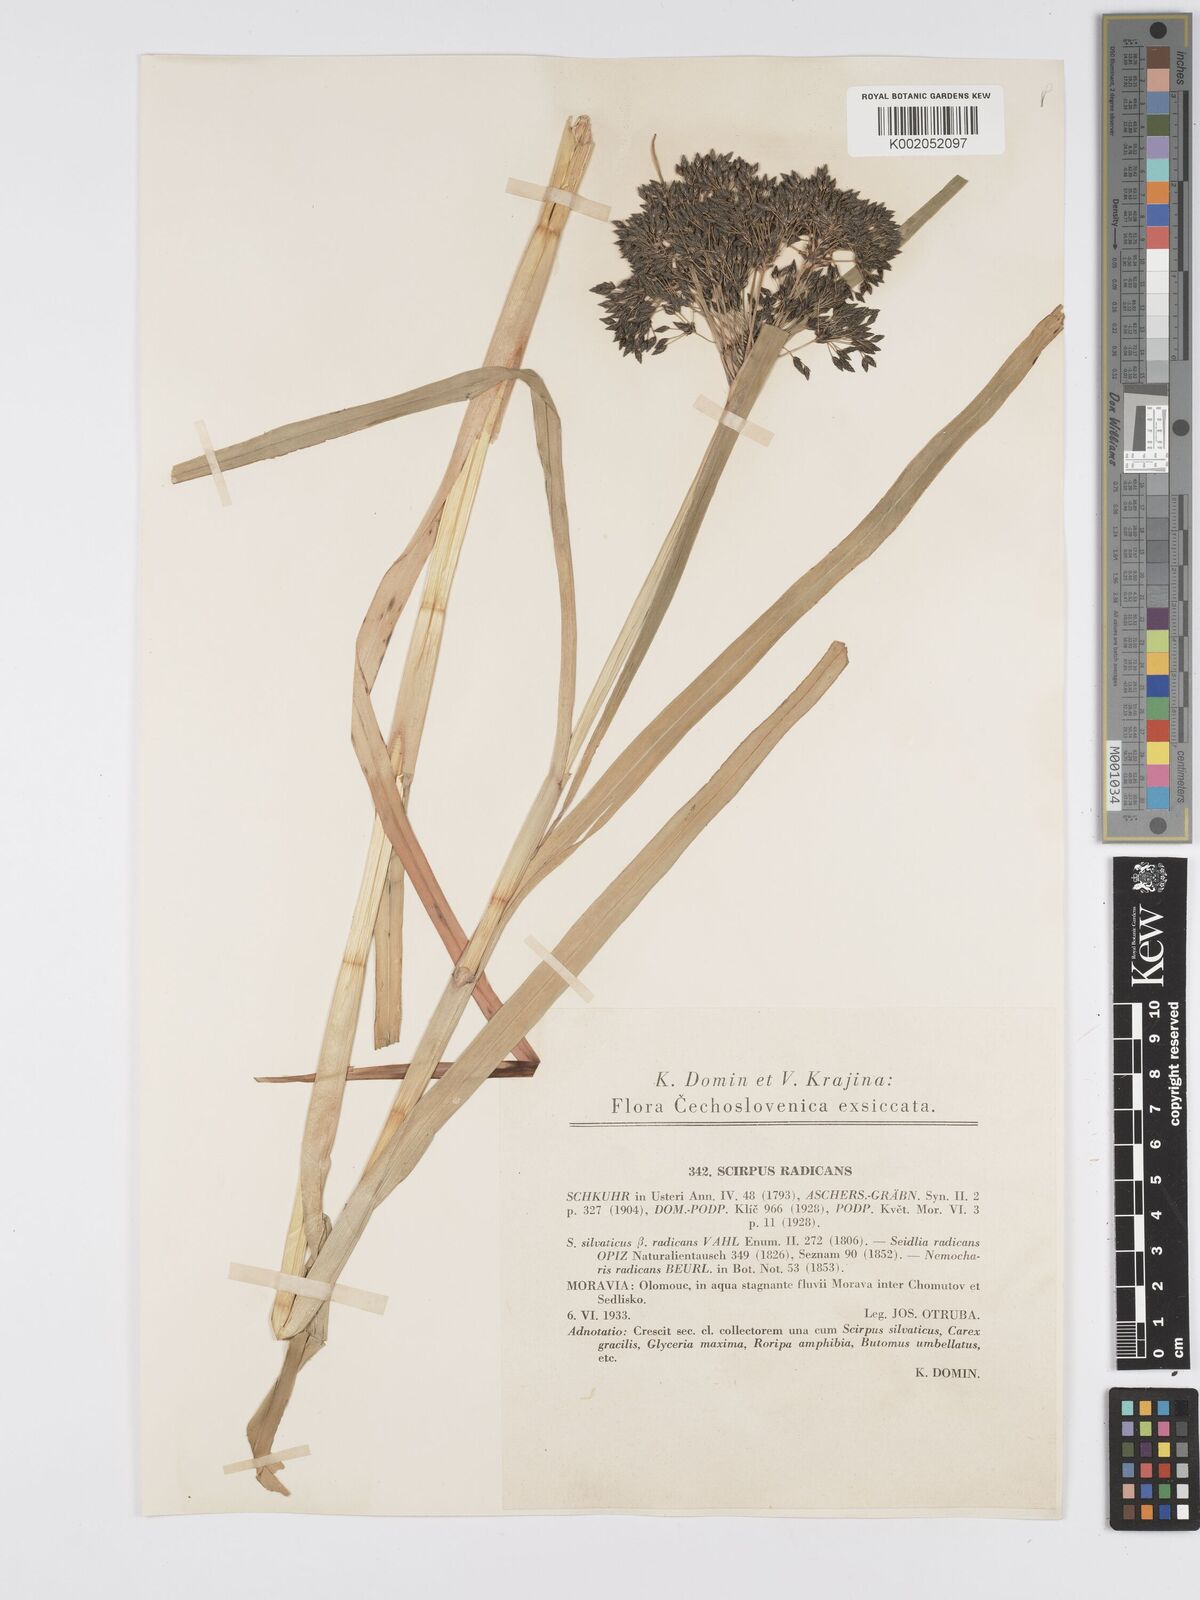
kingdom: Plantae
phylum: Tracheophyta
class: Liliopsida
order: Poales
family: Cyperaceae
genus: Scirpus
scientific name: Scirpus radicans
